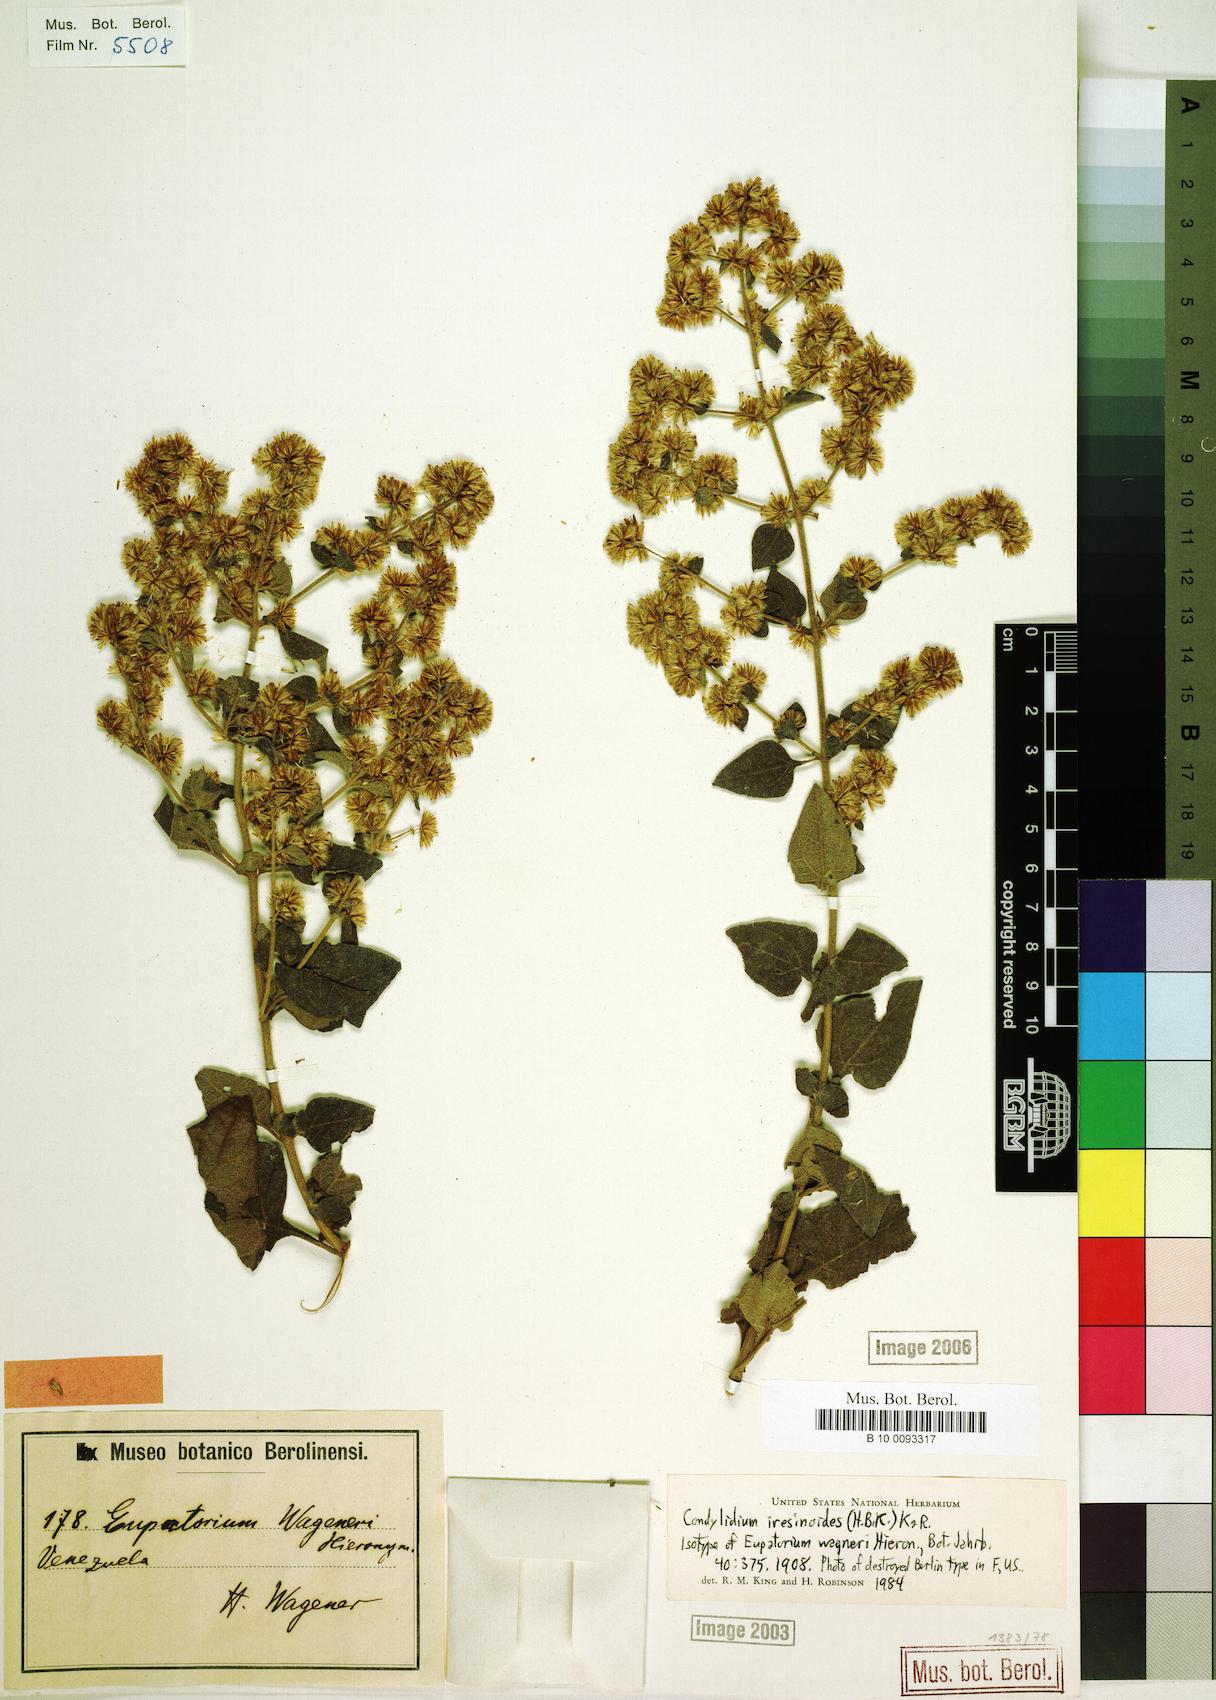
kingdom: Plantae
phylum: Tracheophyta
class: Magnoliopsida
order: Asterales
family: Asteraceae
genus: Condylidium
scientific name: Condylidium iresinoides
